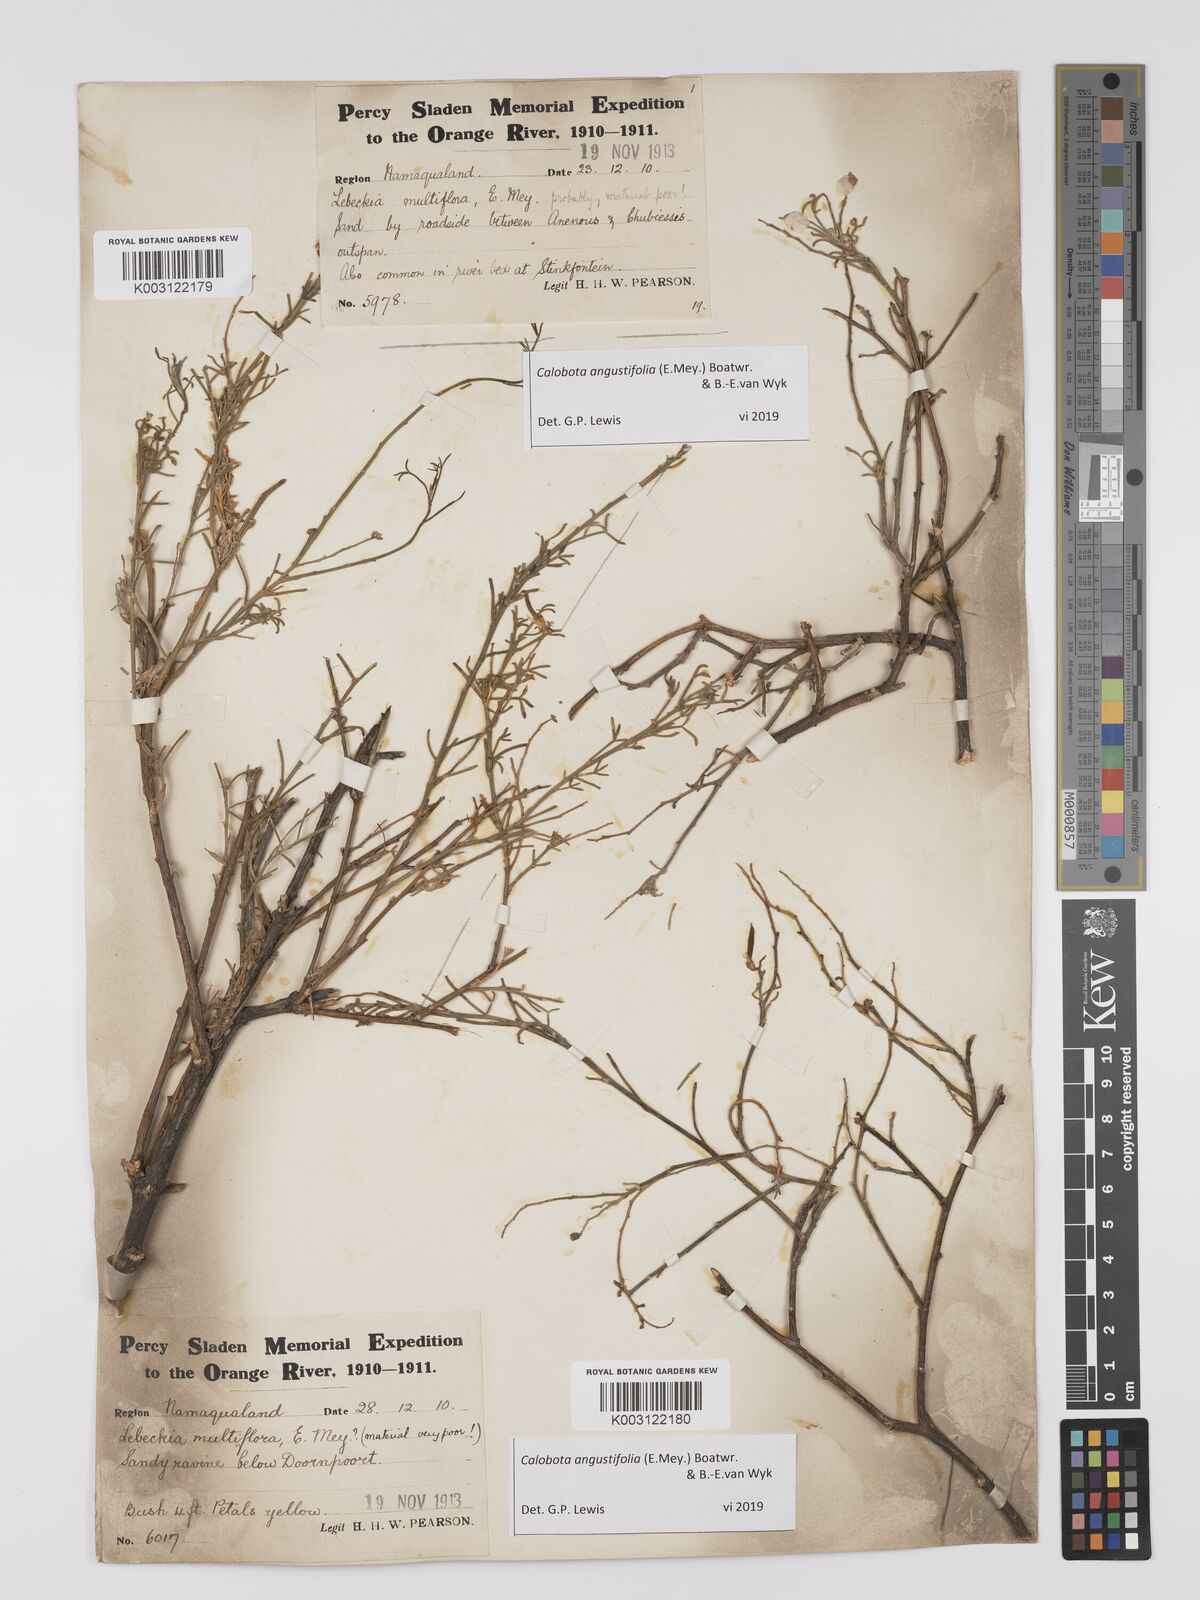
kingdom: Plantae
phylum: Tracheophyta
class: Magnoliopsida
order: Fabales
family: Fabaceae
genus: Calobota
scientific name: Calobota angustifolia
